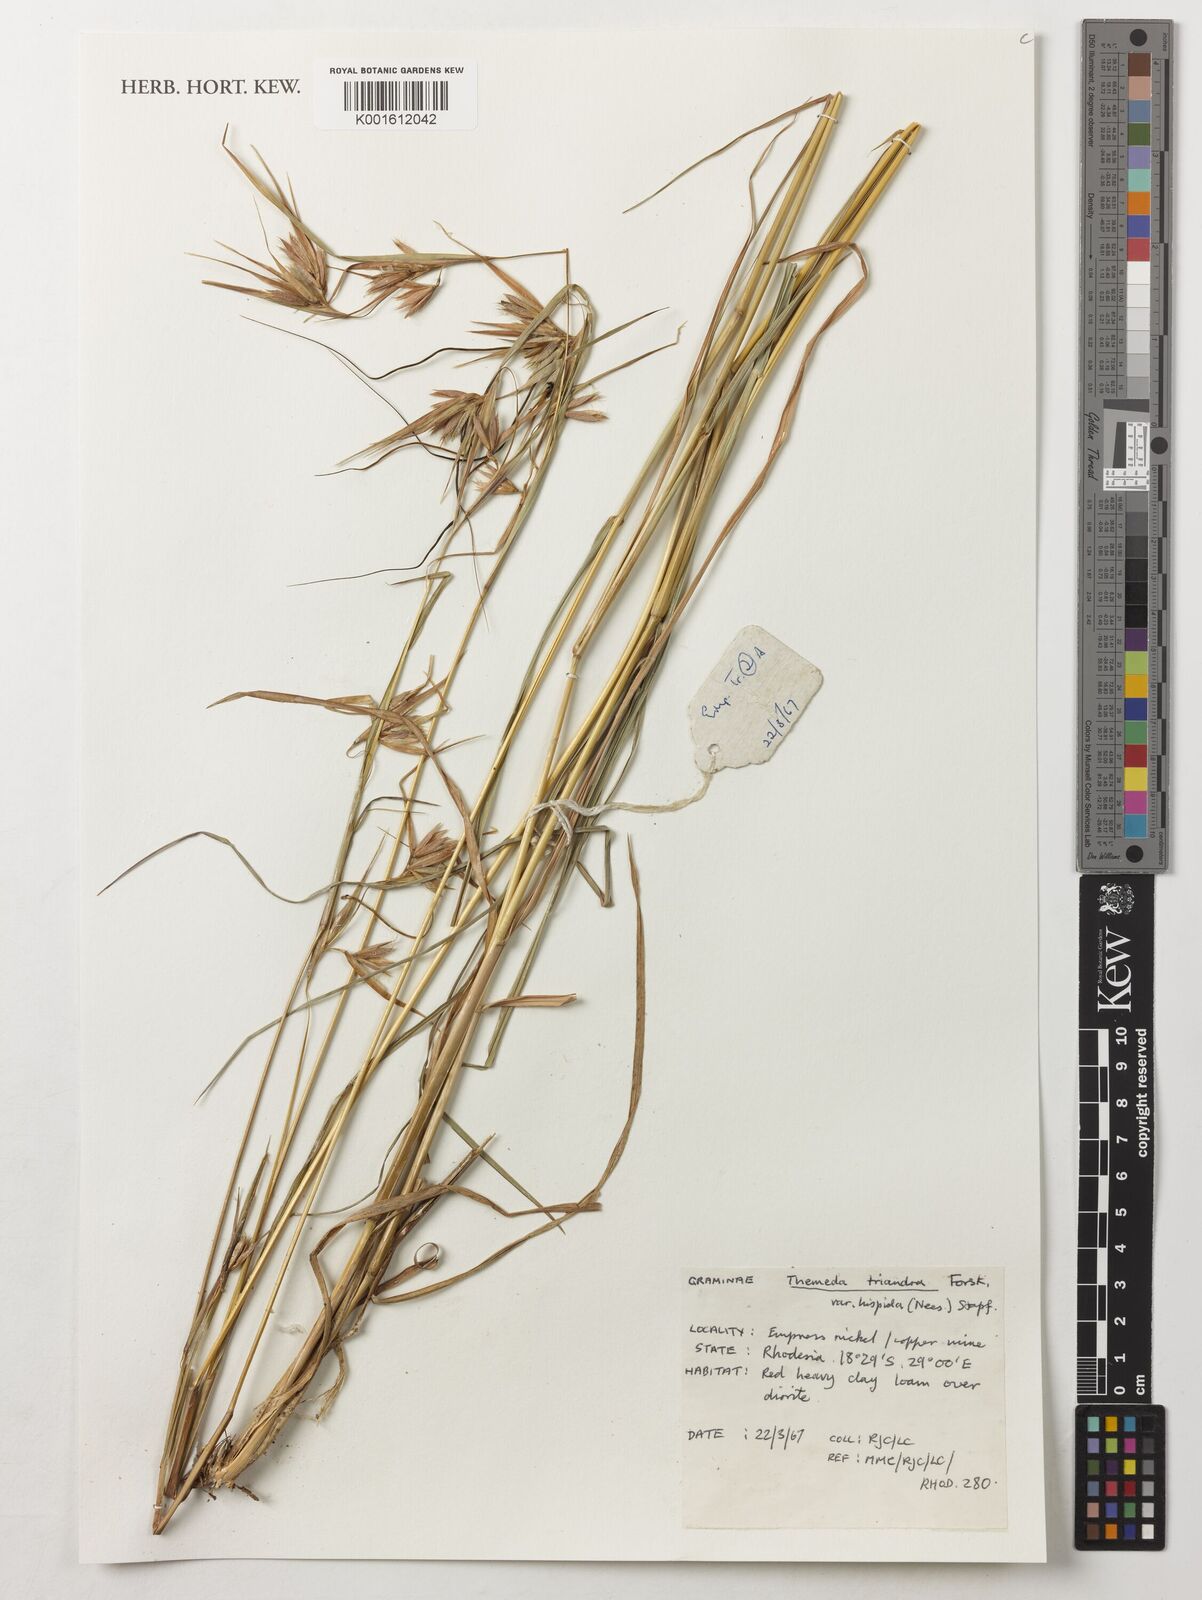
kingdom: Plantae
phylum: Tracheophyta
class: Liliopsida
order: Poales
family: Poaceae
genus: Themeda
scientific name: Themeda triandra
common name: Kangaroo grass
